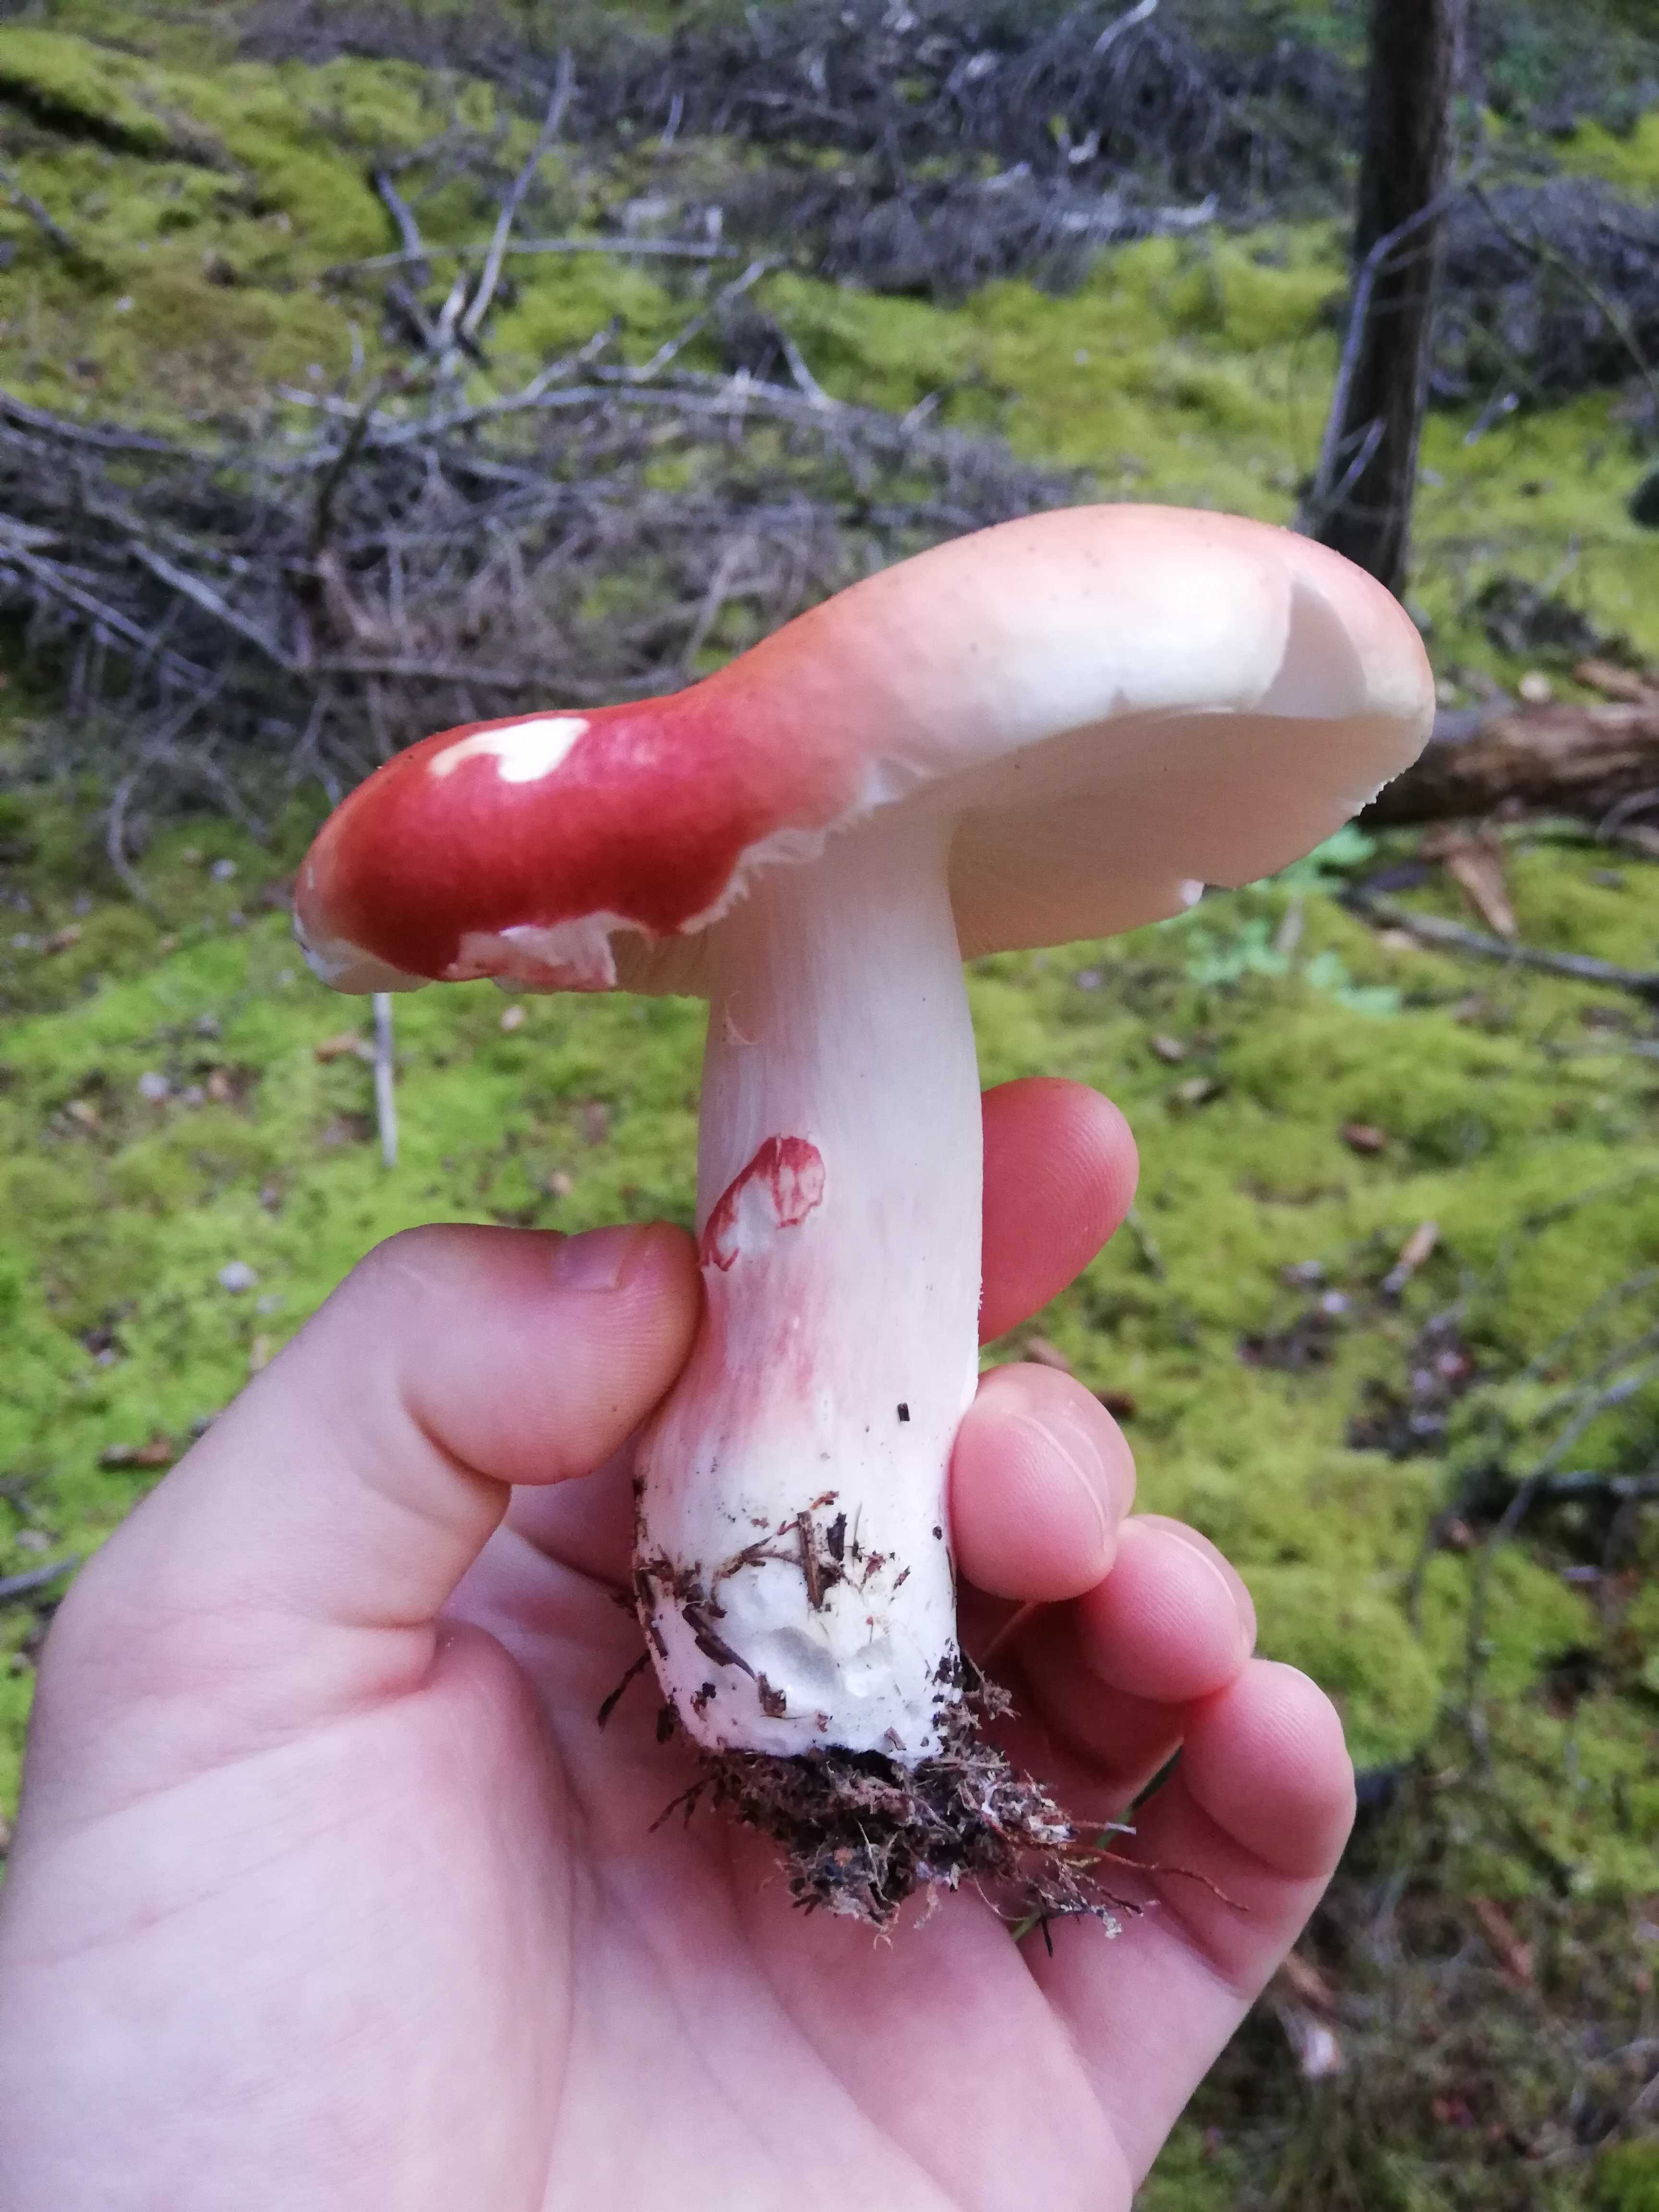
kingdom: Fungi
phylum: Basidiomycota
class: Agaricomycetes
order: Russulales
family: Russulaceae
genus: Russula
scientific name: Russula paludosa
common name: prægtig skørhat
